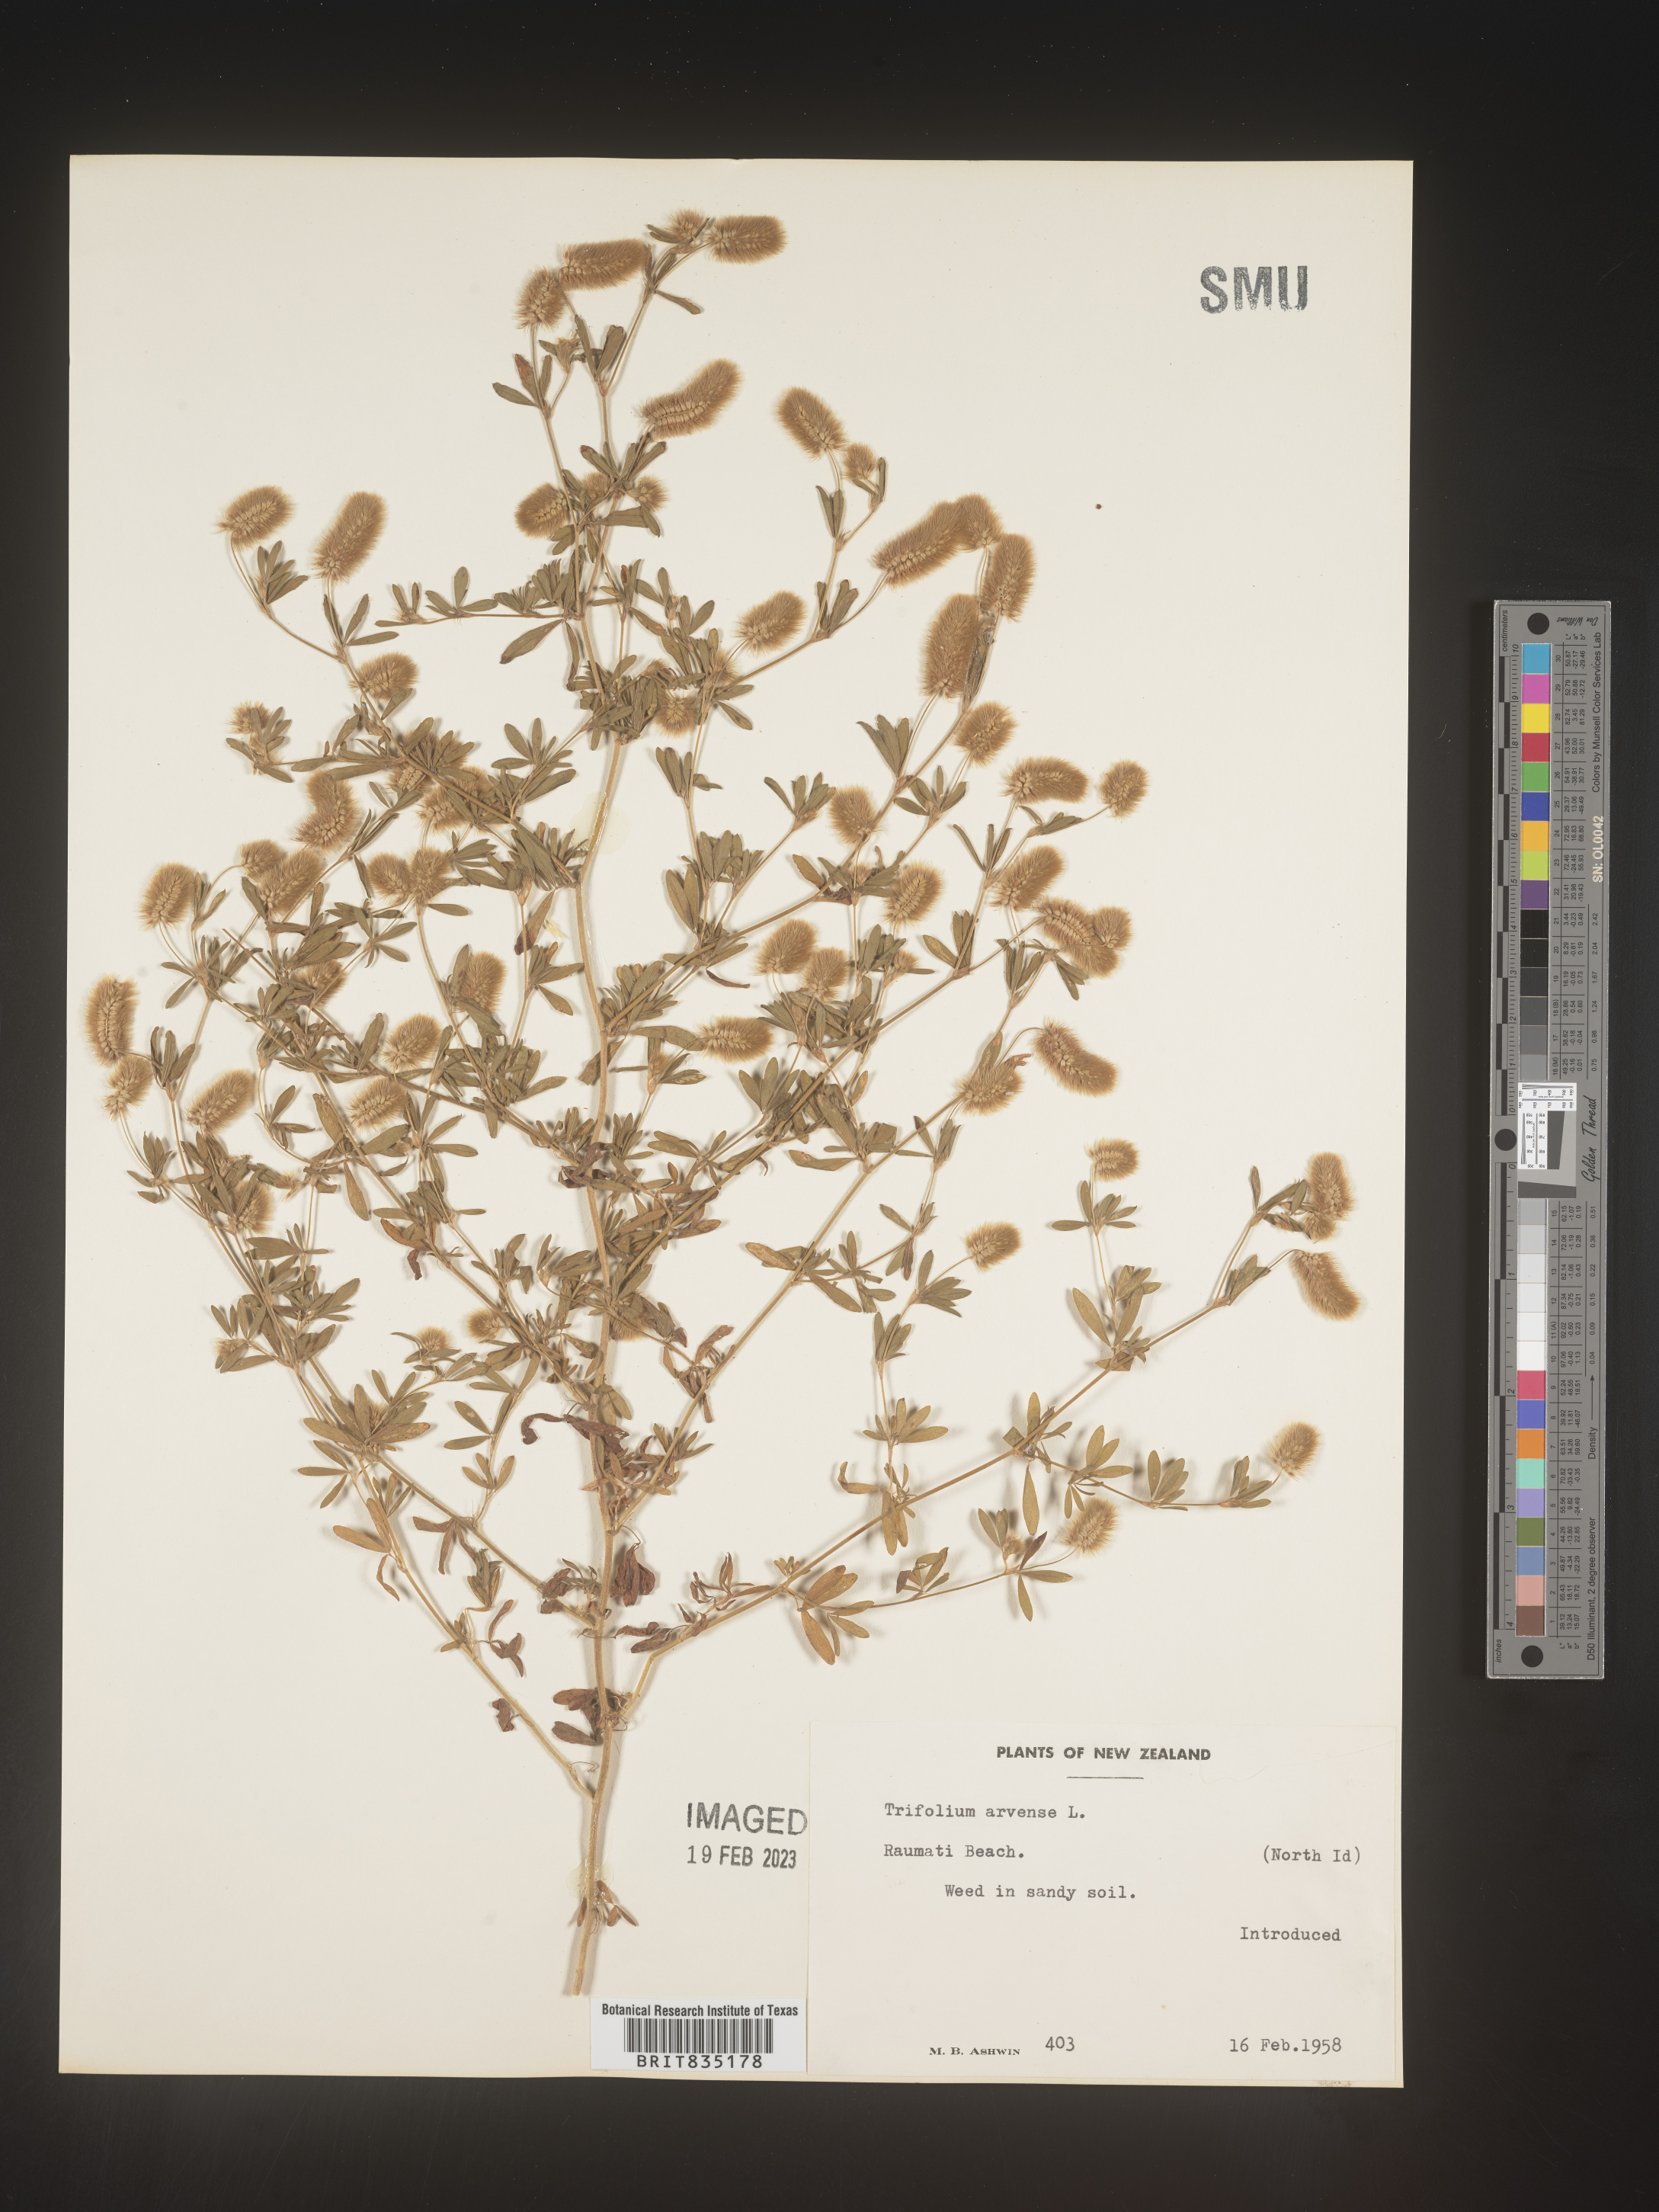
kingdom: Plantae
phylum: Tracheophyta
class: Magnoliopsida
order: Fabales
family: Fabaceae
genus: Trifolium
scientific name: Trifolium
